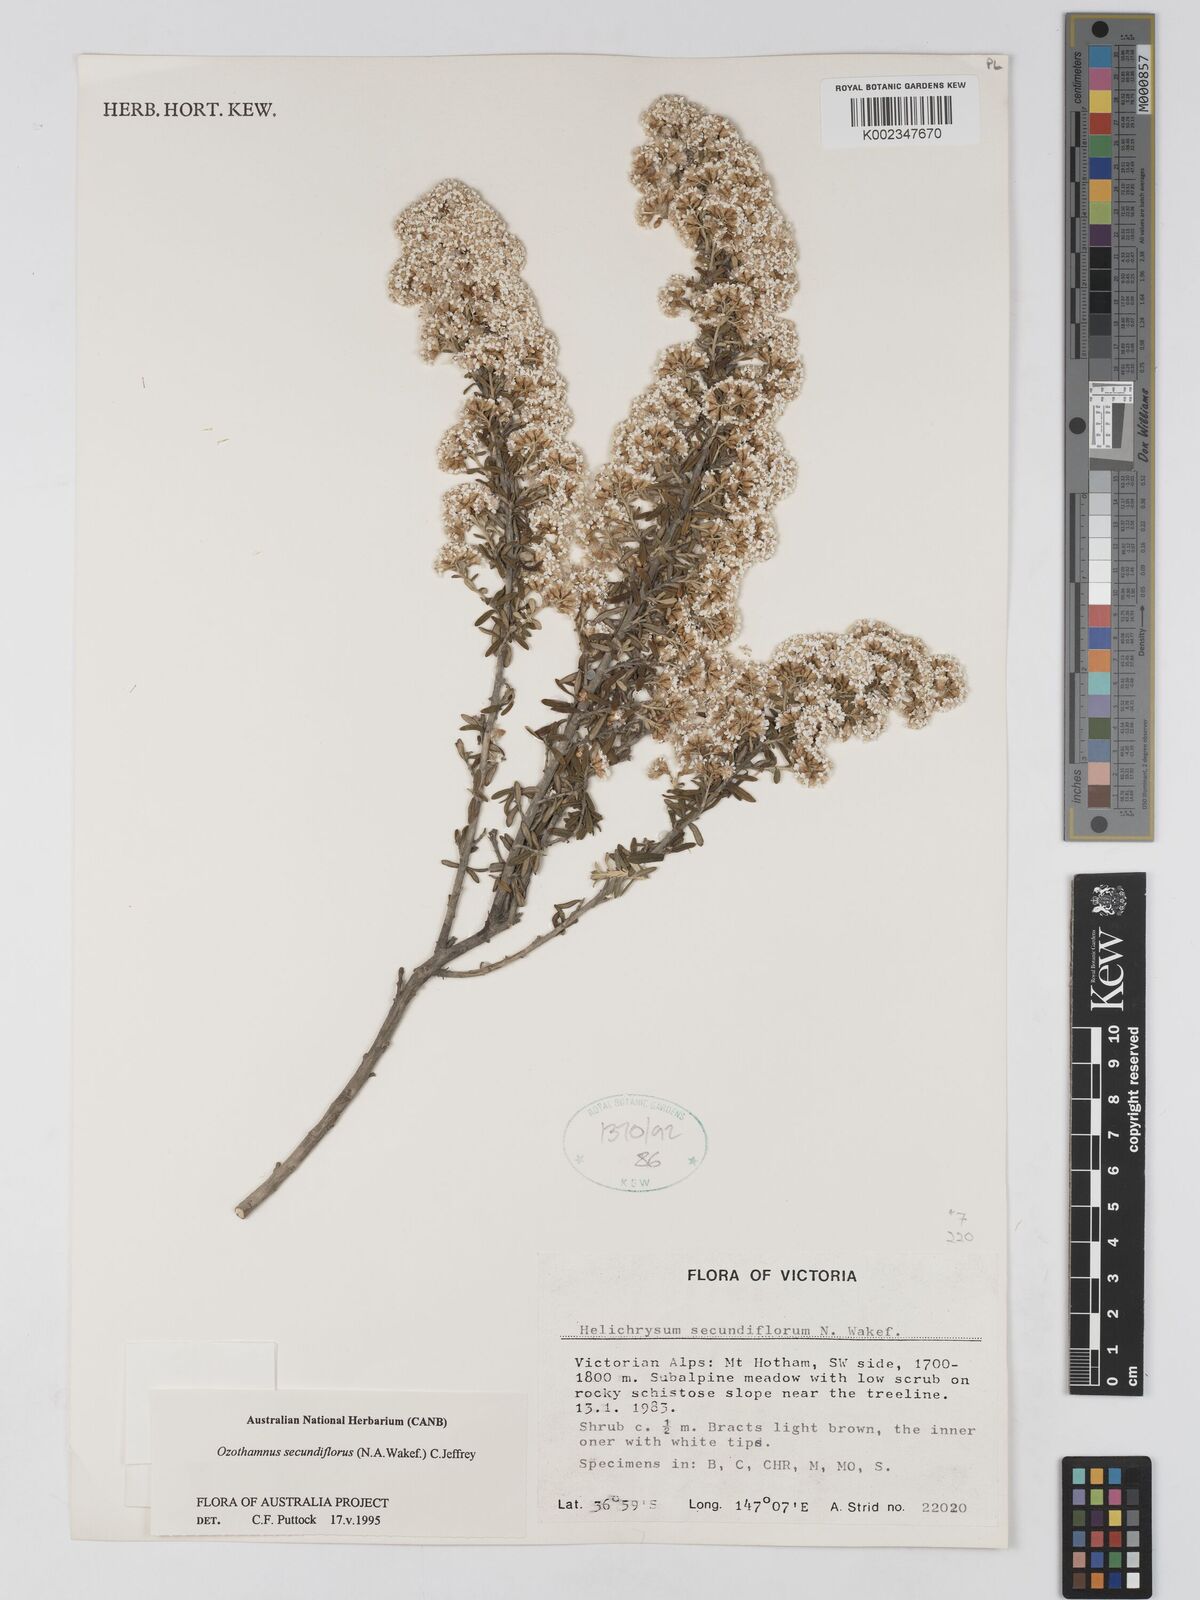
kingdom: Plantae
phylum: Tracheophyta
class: Magnoliopsida
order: Asterales
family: Asteraceae
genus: Ozothamnus
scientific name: Ozothamnus secundiflorus
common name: Cascade everlasting
